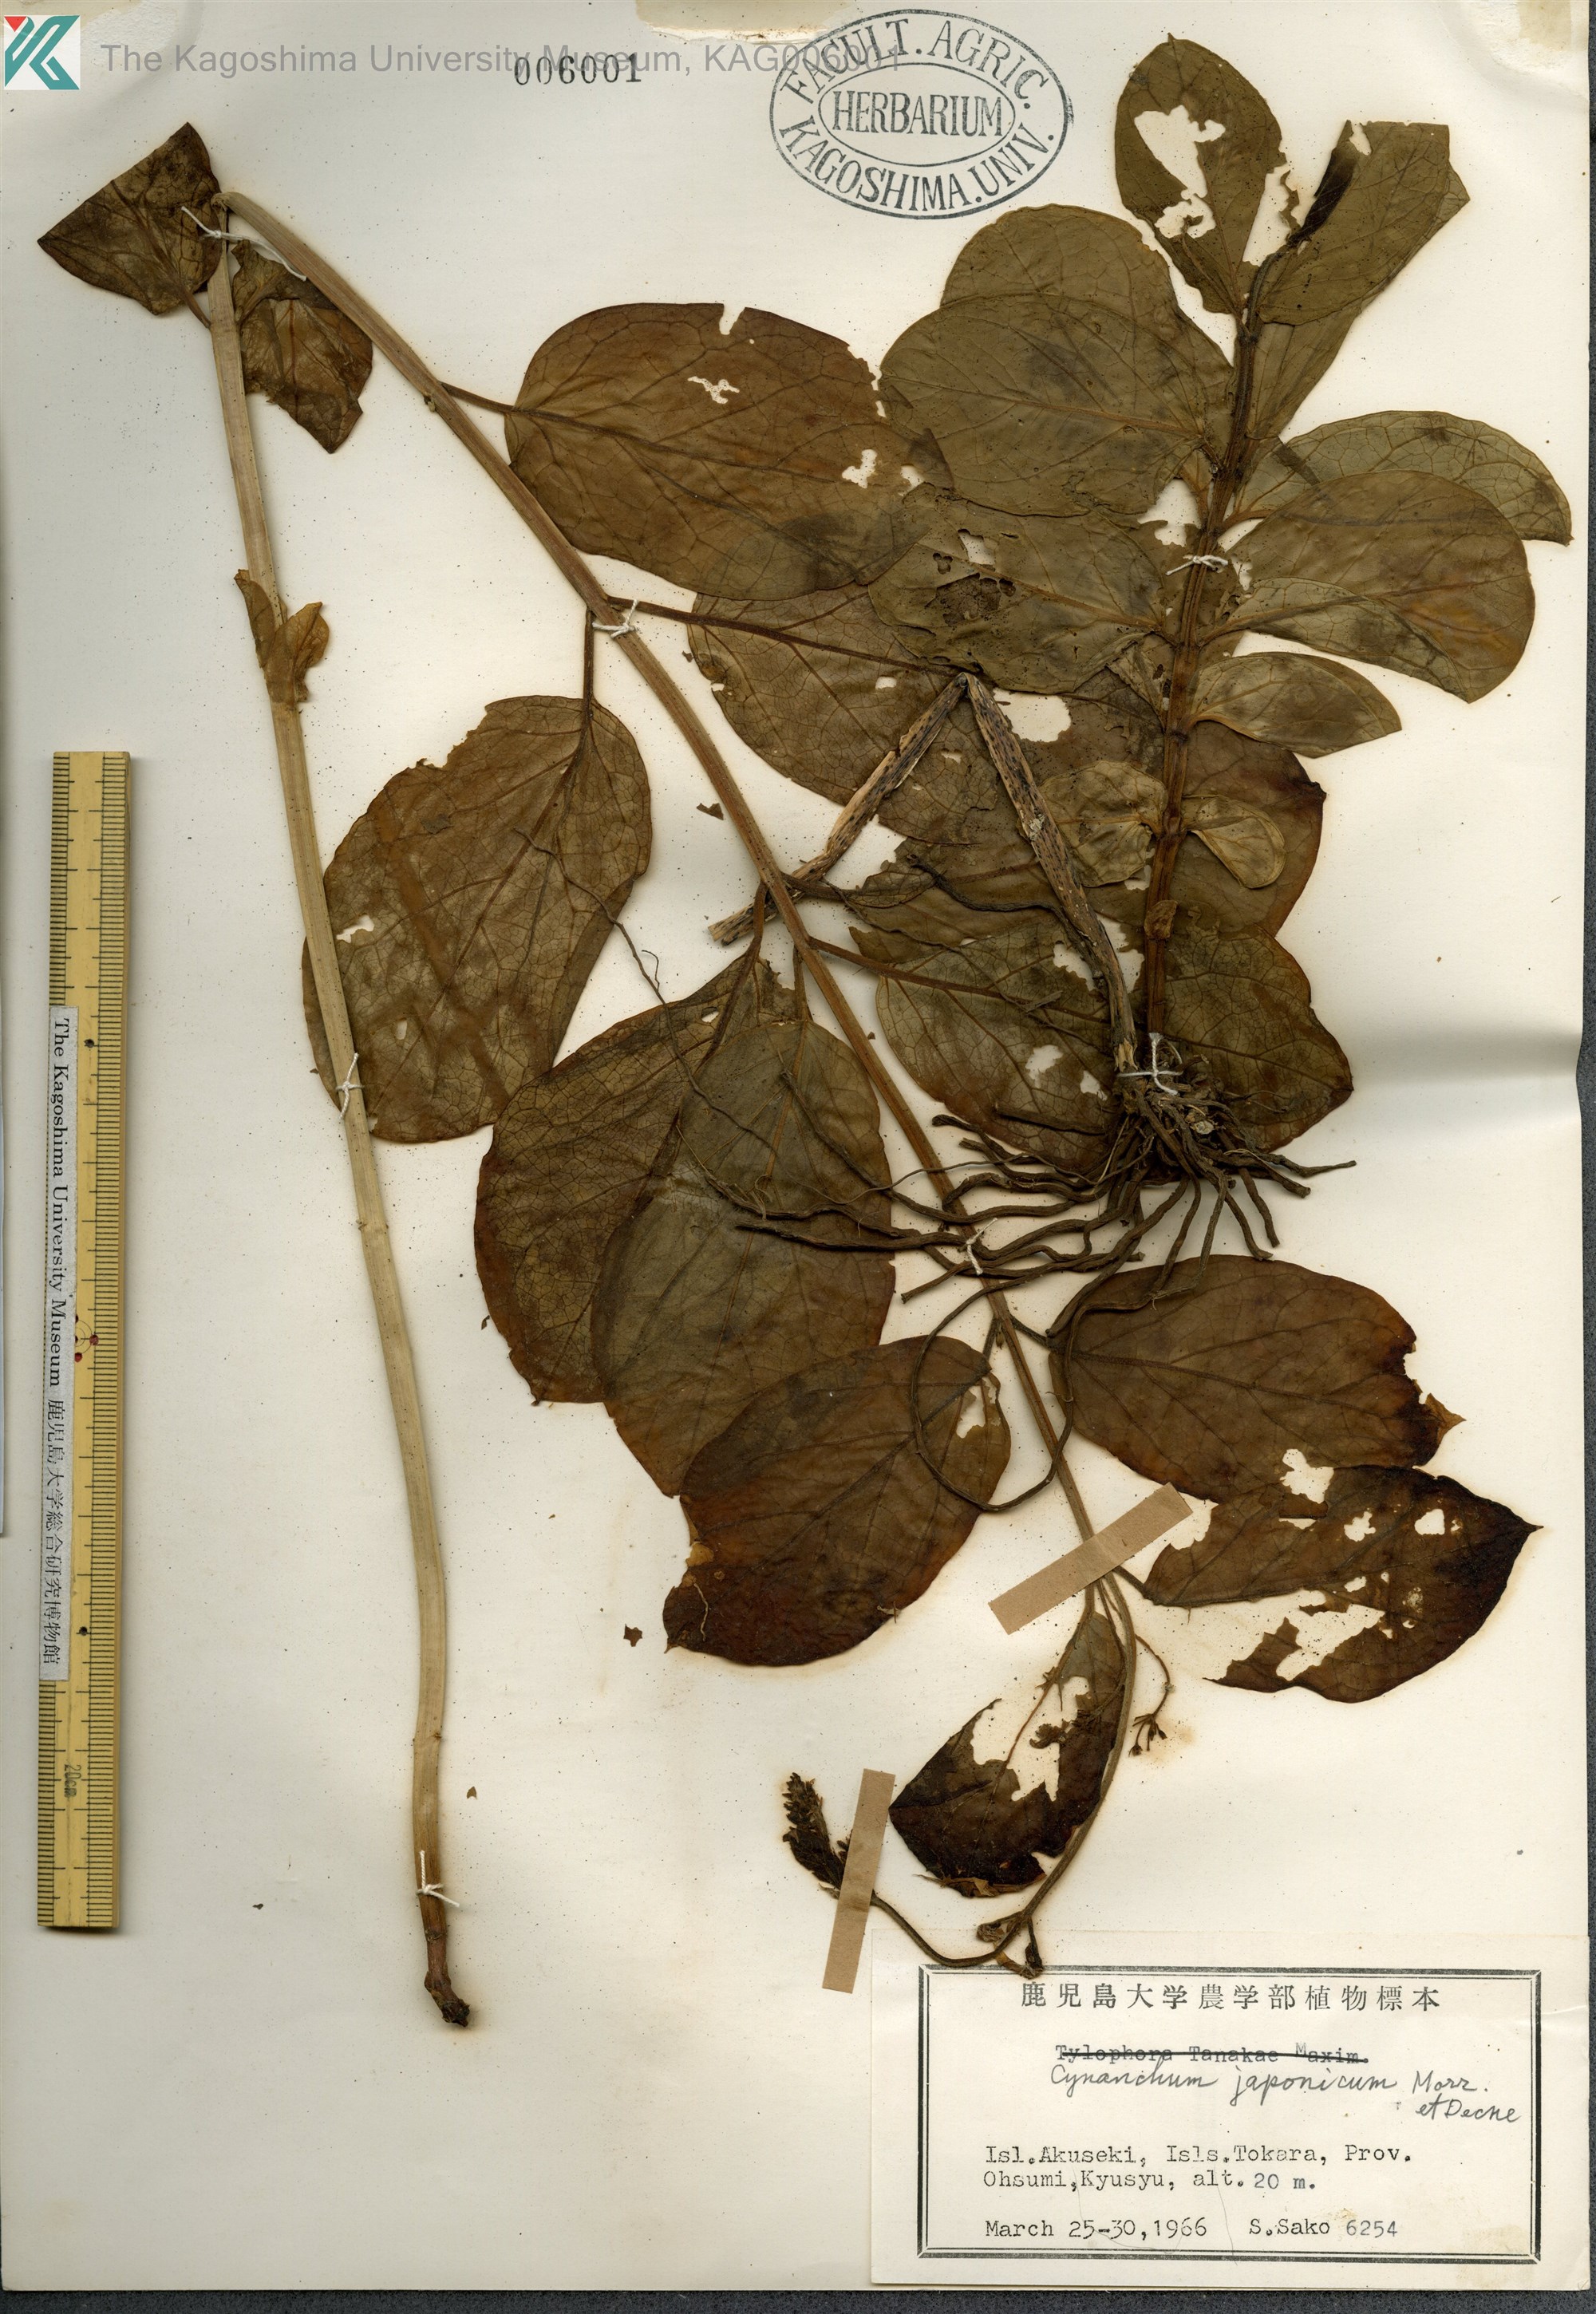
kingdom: Plantae
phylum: Tracheophyta
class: Magnoliopsida
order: Gentianales
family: Apocynaceae
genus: Vincetoxicum
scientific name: Vincetoxicum japonicum
